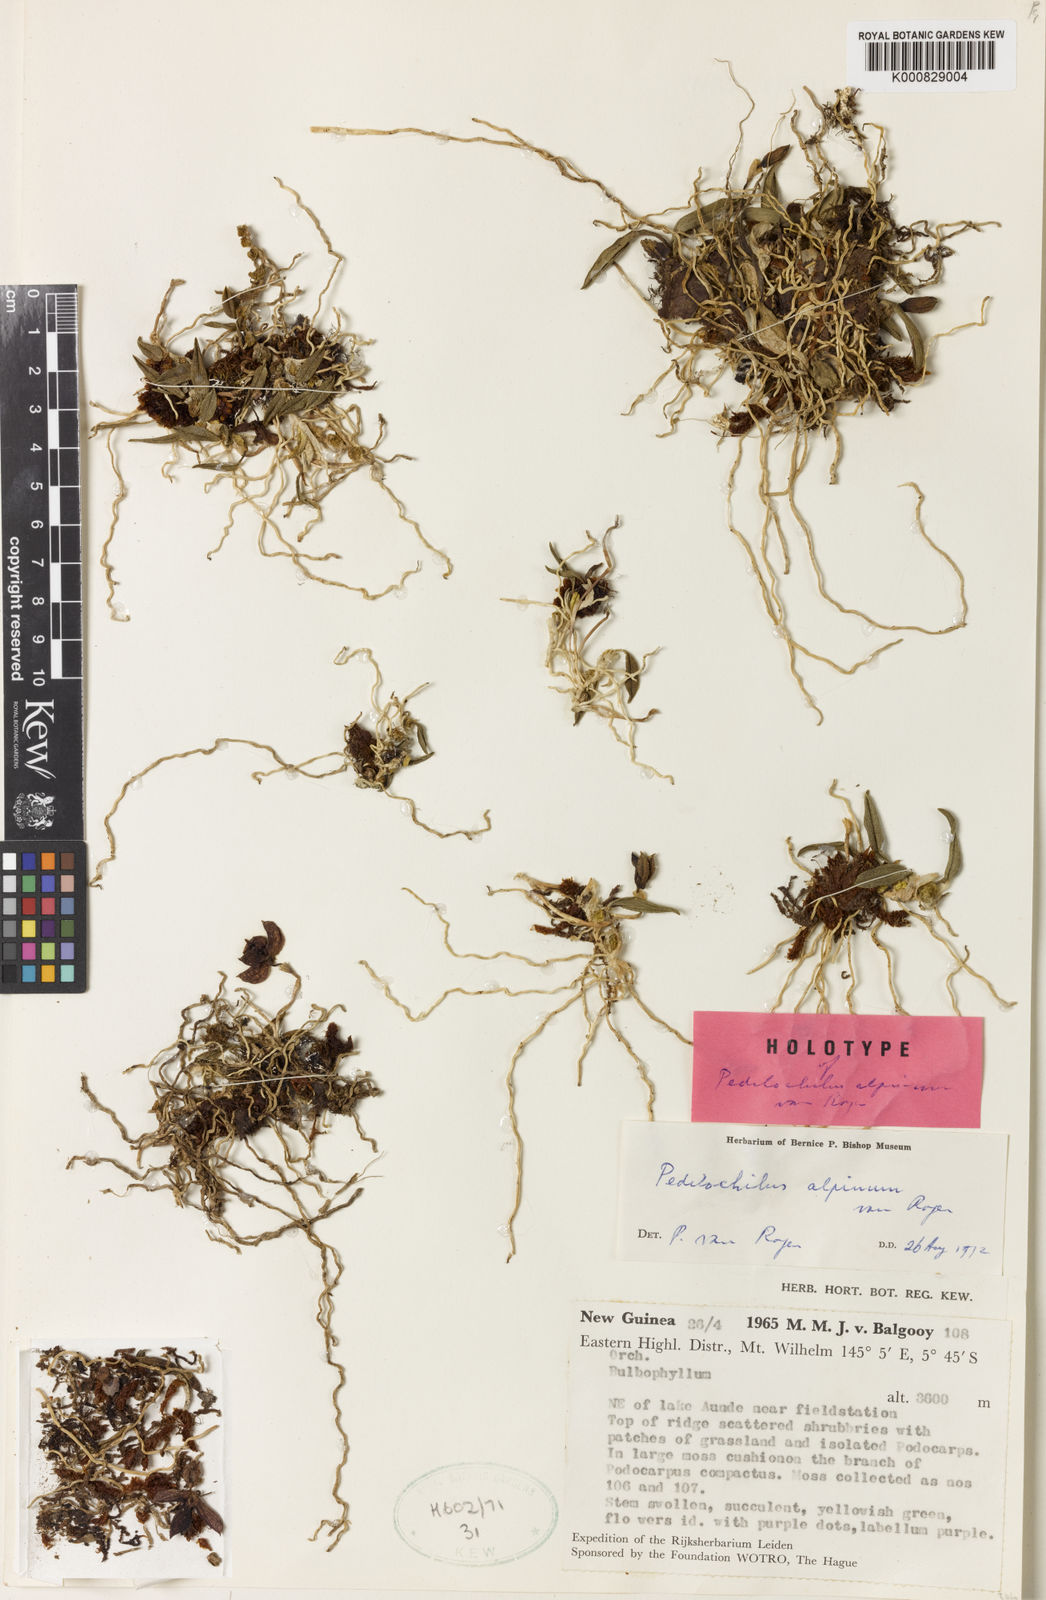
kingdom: Plantae
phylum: Tracheophyta
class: Liliopsida
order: Asparagales
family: Orchidaceae
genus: Bulbophyllum
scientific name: Bulbophyllum alpinum
